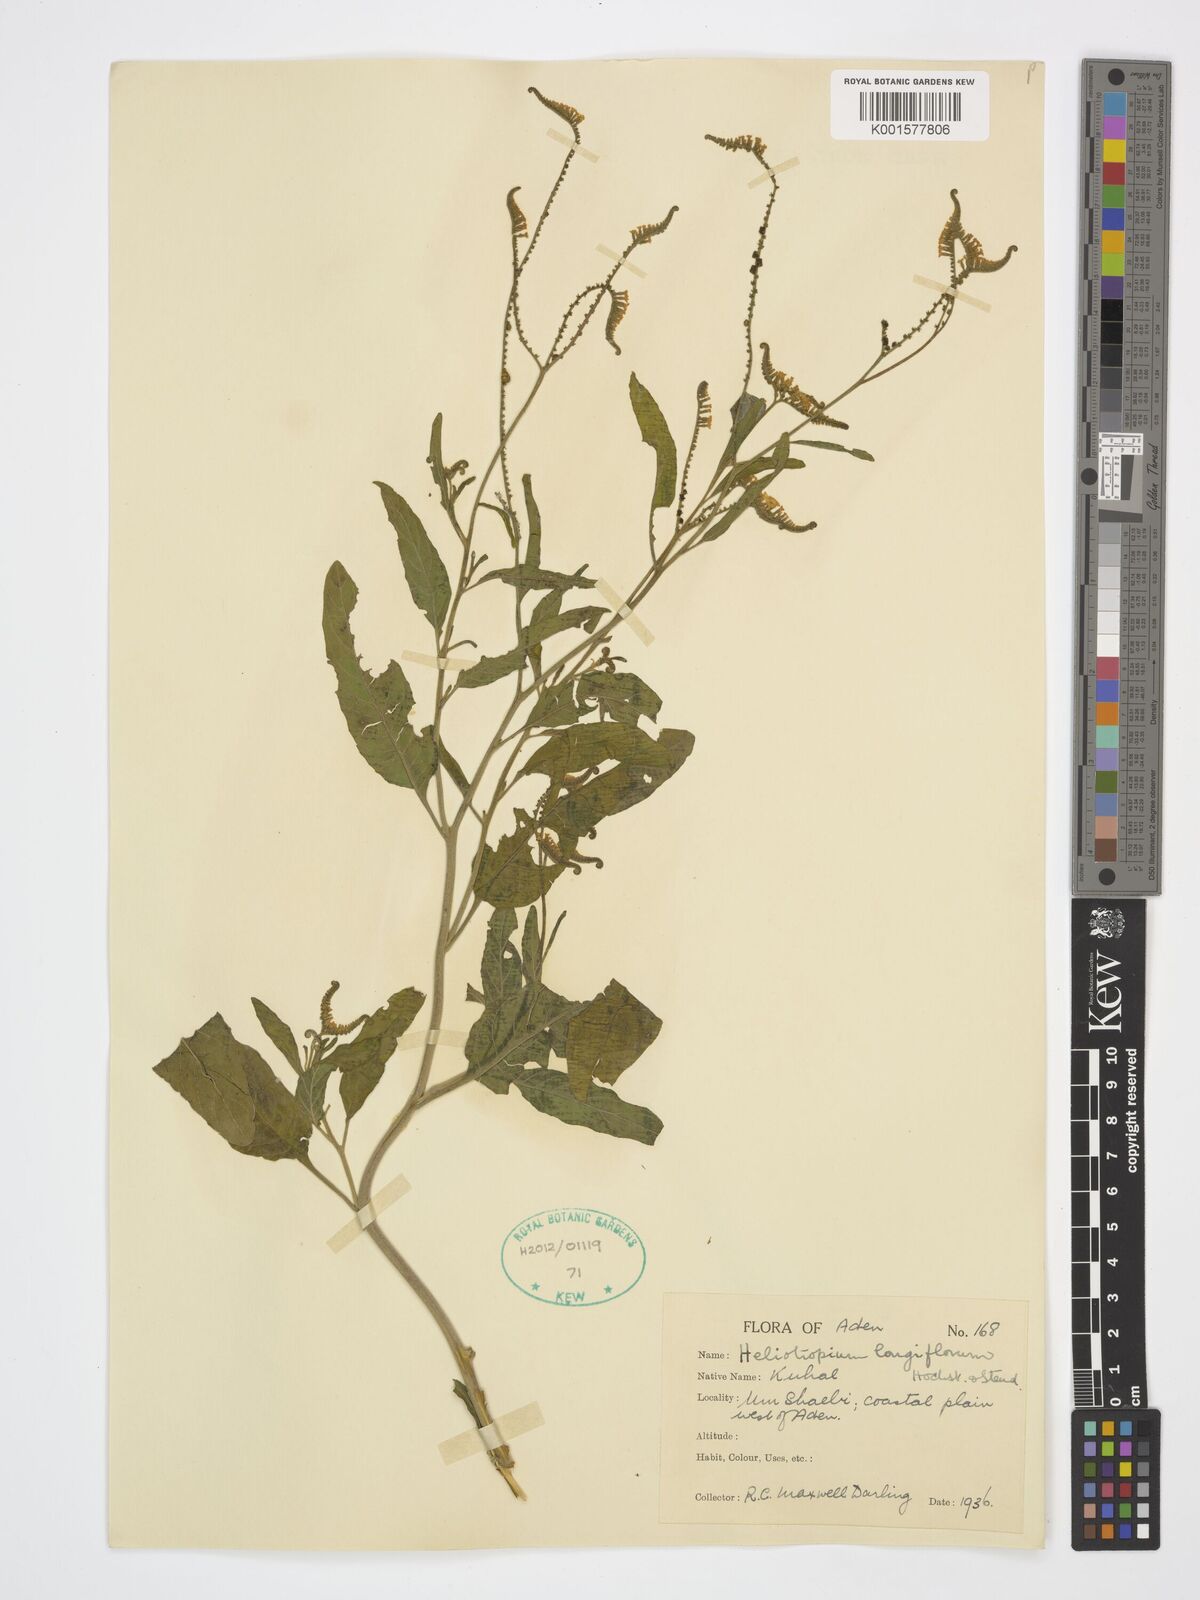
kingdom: Plantae
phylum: Tracheophyta
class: Magnoliopsida
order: Boraginales
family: Heliotropiaceae
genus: Heliotropium
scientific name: Heliotropium longiflorum
